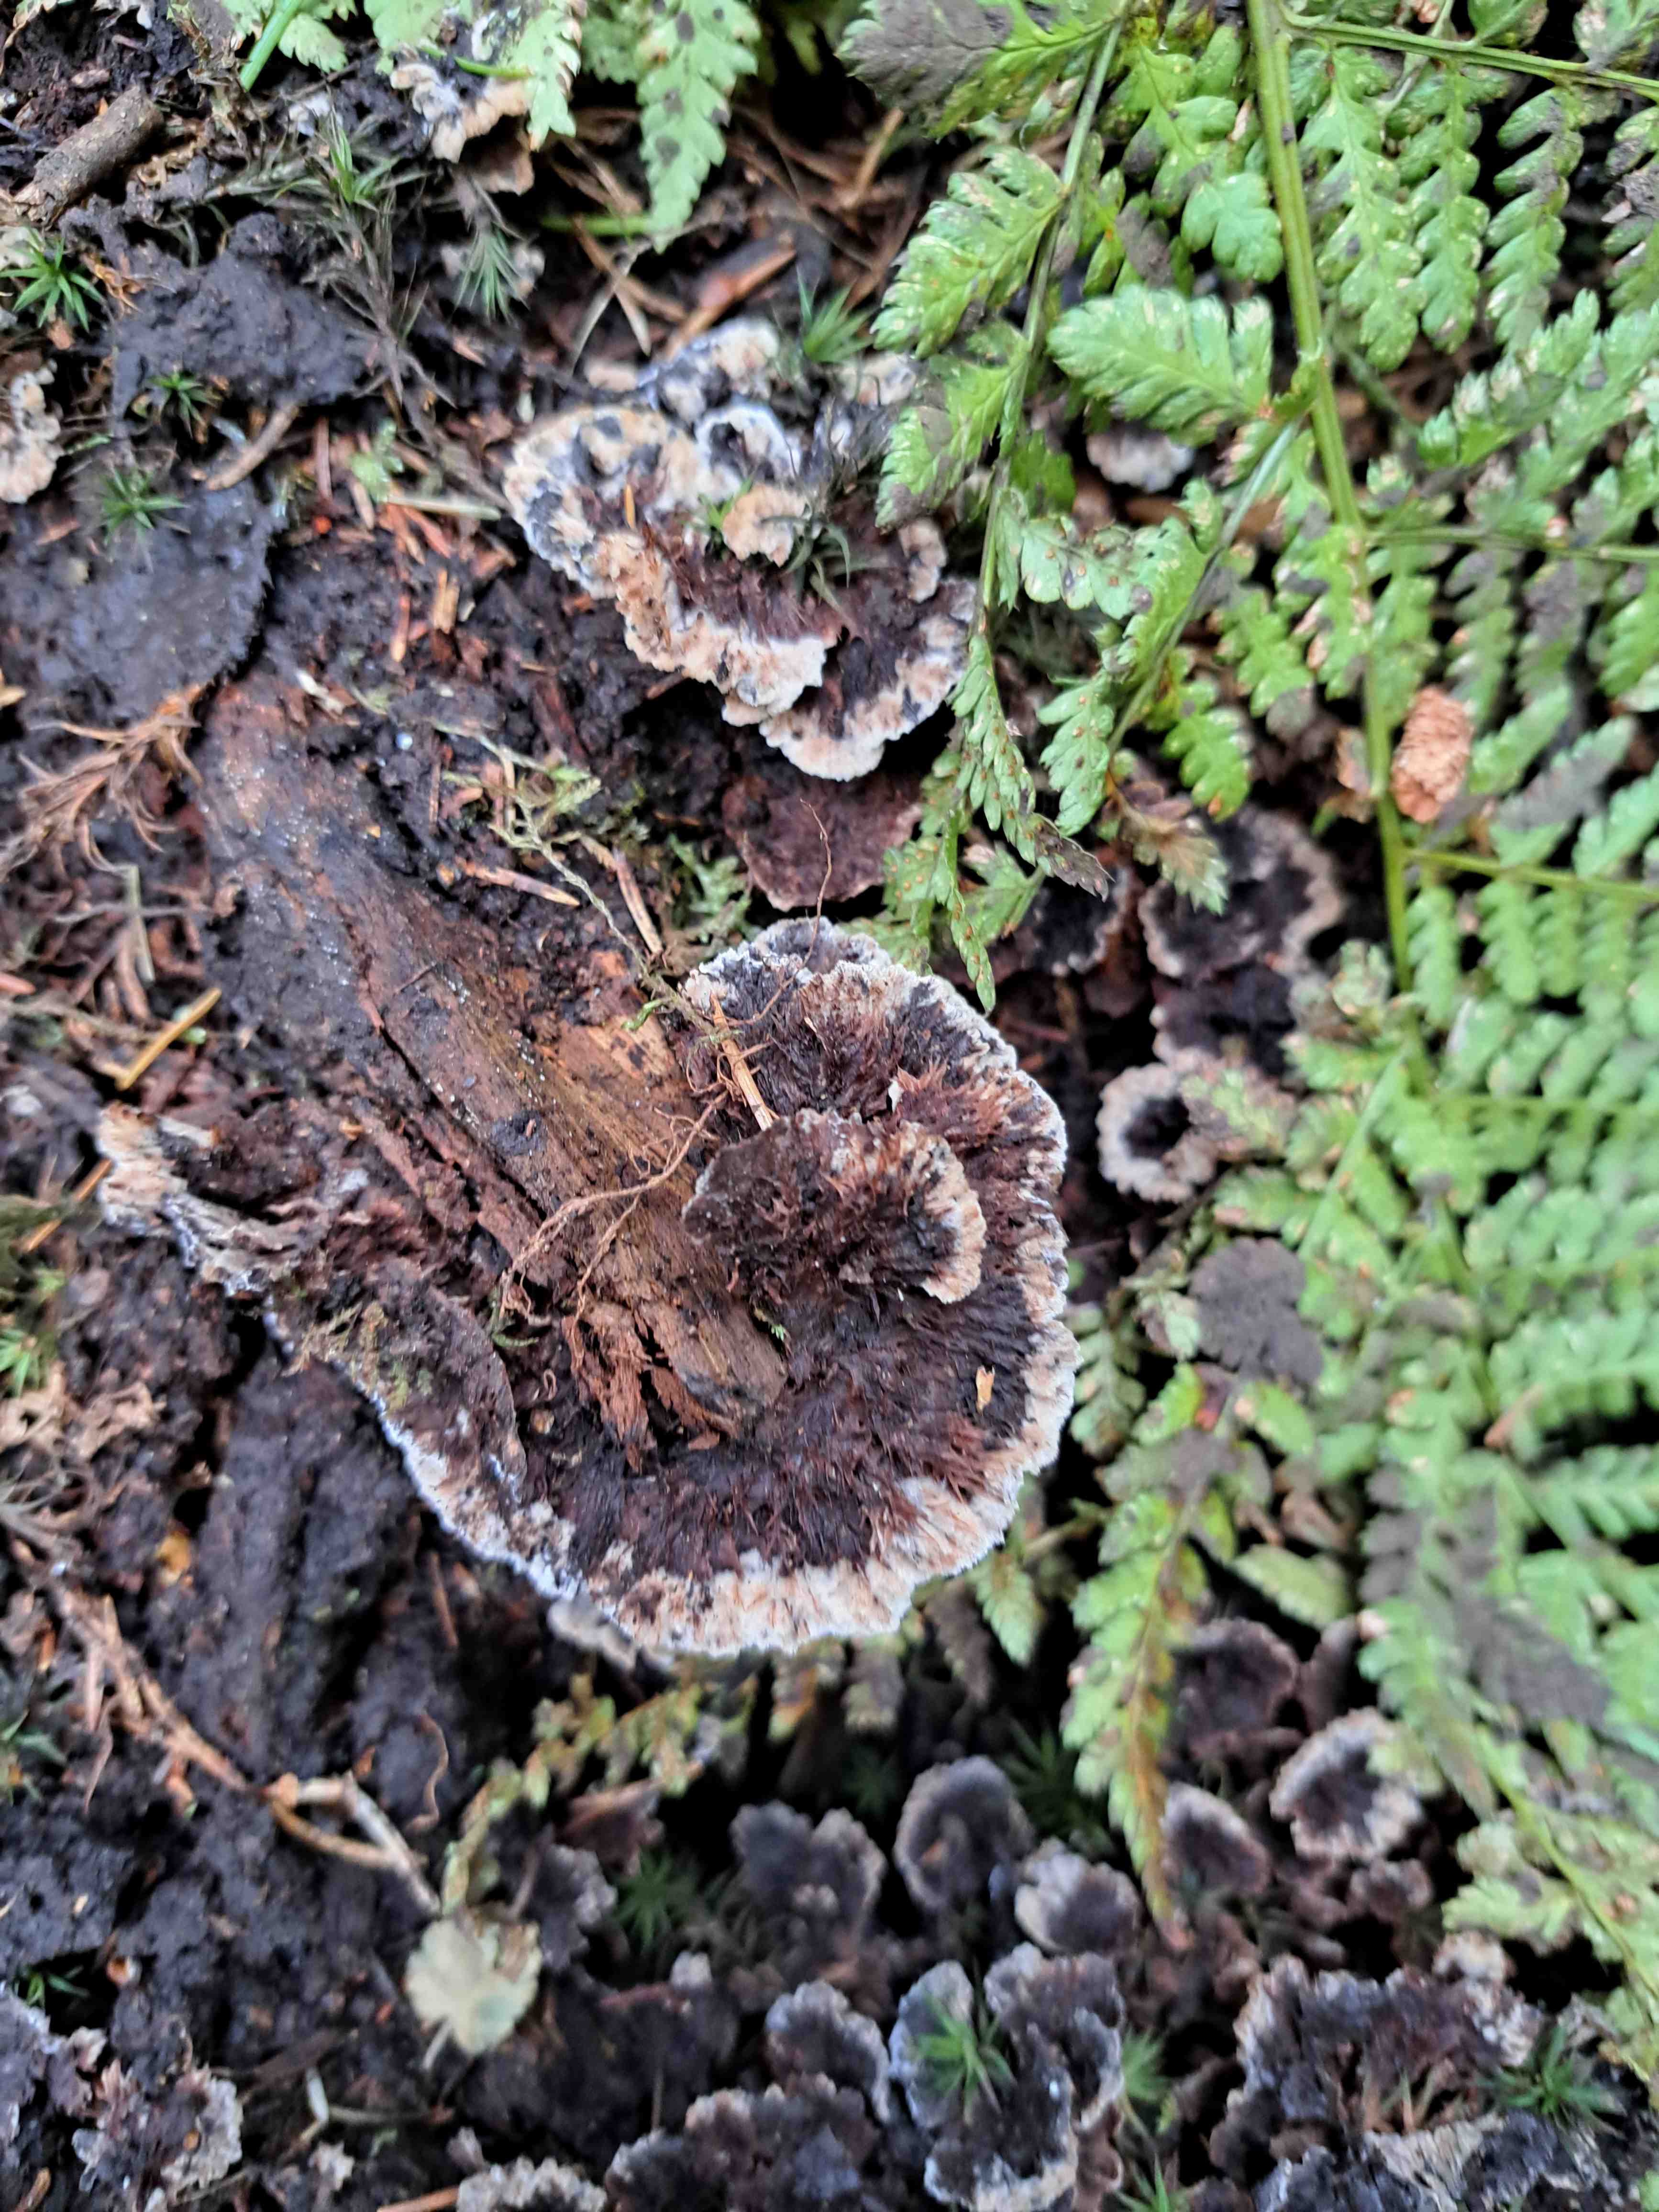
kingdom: Fungi
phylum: Basidiomycota
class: Agaricomycetes
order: Thelephorales
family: Thelephoraceae
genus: Thelephora
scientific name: Thelephora terrestris
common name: fliget frynsesvamp
